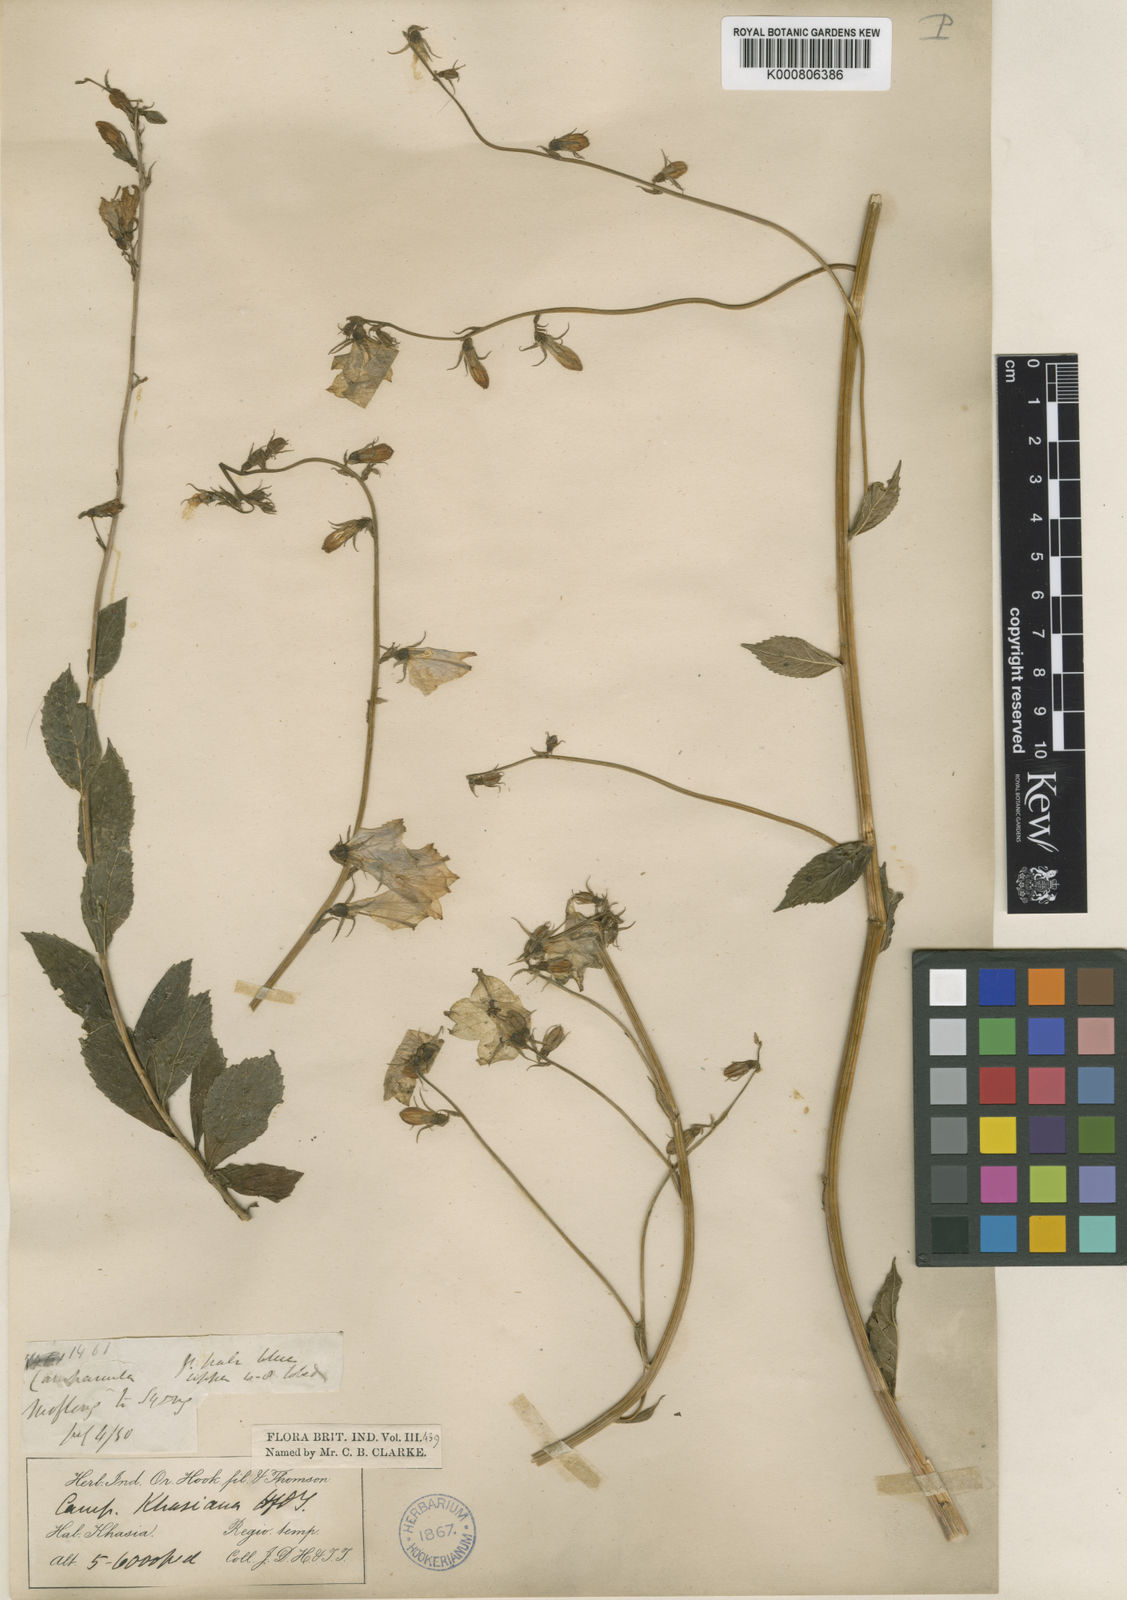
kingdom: Plantae
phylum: Tracheophyta
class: Magnoliopsida
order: Asterales
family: Campanulaceae
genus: Adenophora
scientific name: Adenophora
